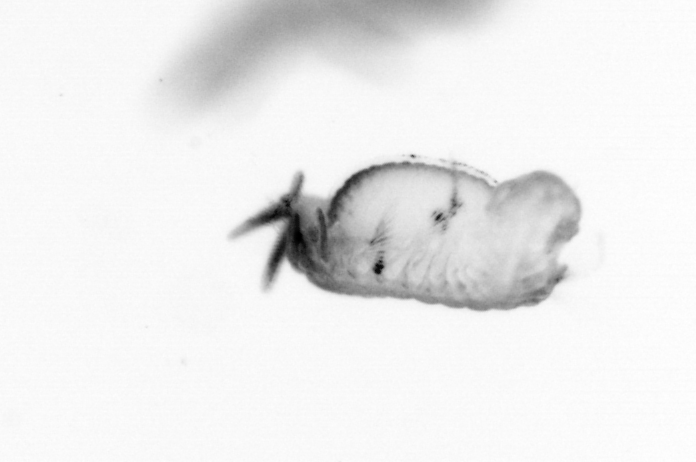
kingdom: Animalia
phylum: Annelida
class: Polychaeta
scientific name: Polychaeta
